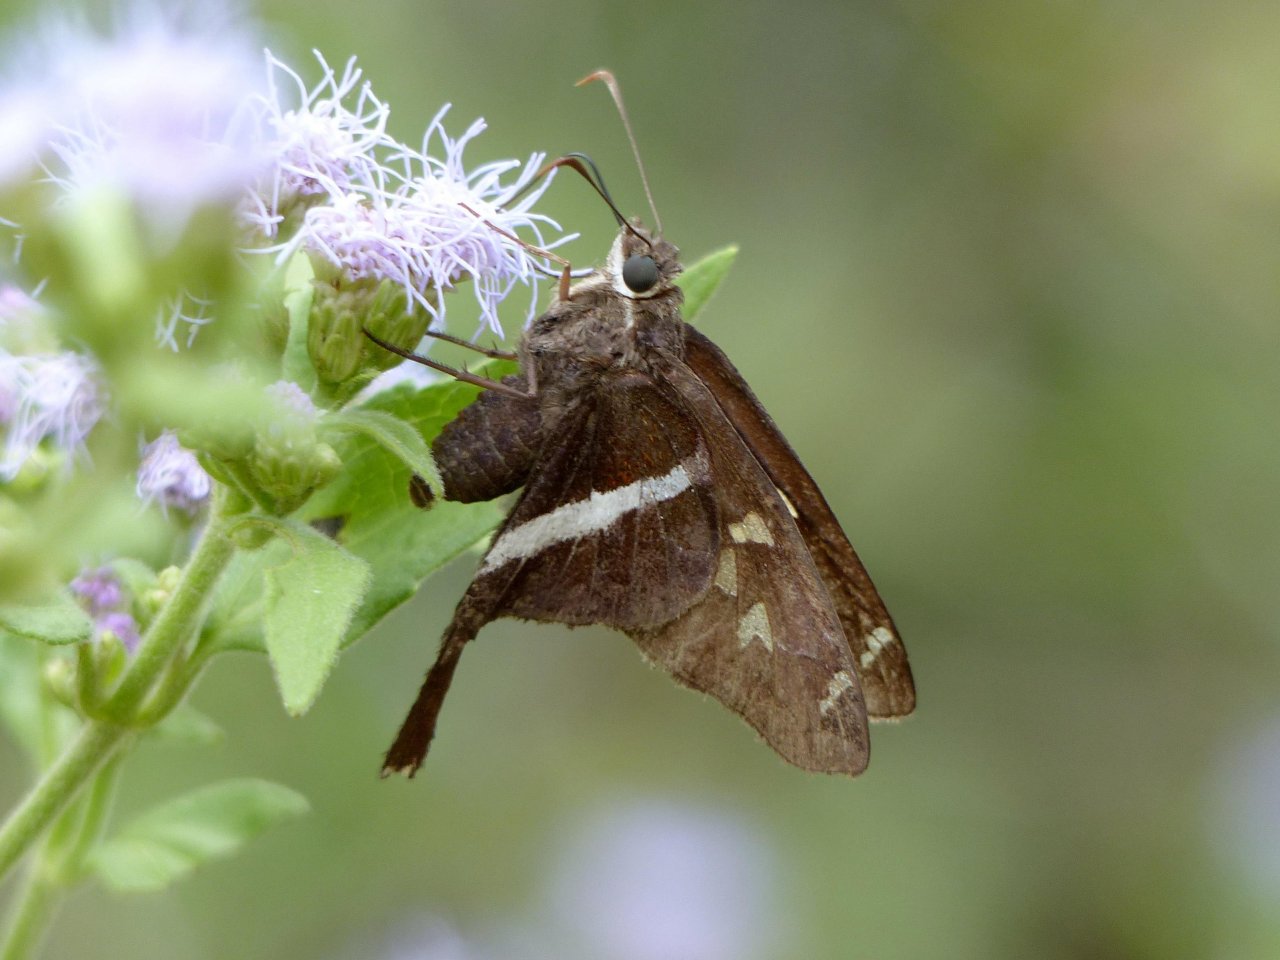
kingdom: Animalia
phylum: Arthropoda
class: Insecta
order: Lepidoptera
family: Hesperiidae
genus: Chioides
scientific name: Chioides catillus
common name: White-striped Longtail
